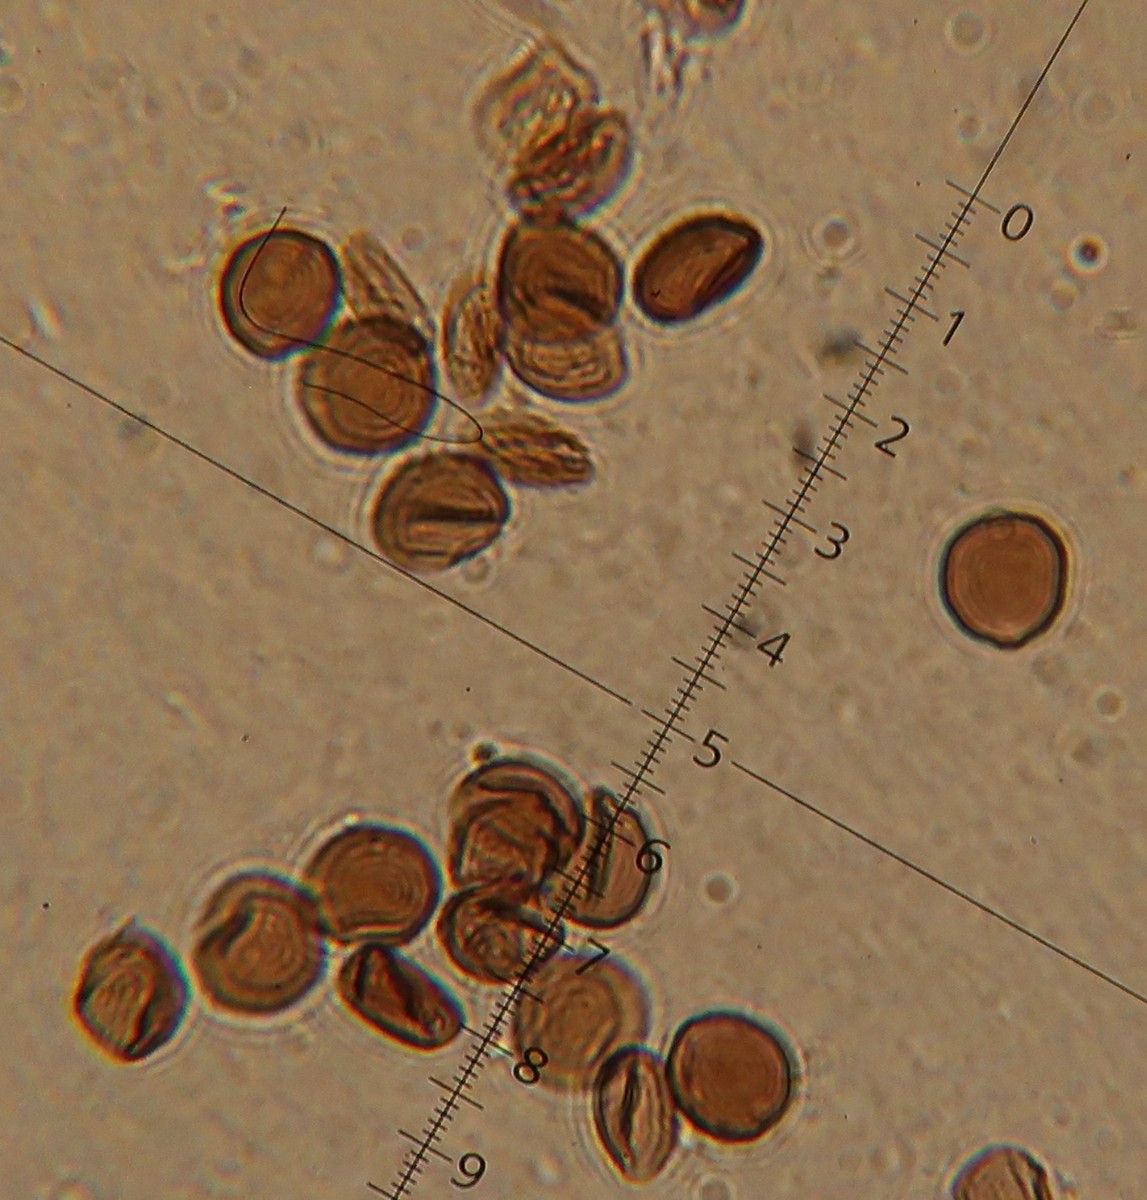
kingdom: Fungi
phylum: Basidiomycota
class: Agaricomycetes
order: Agaricales
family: Psathyrellaceae
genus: Parasola
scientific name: Parasola misera
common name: lillebitte hjulhat
